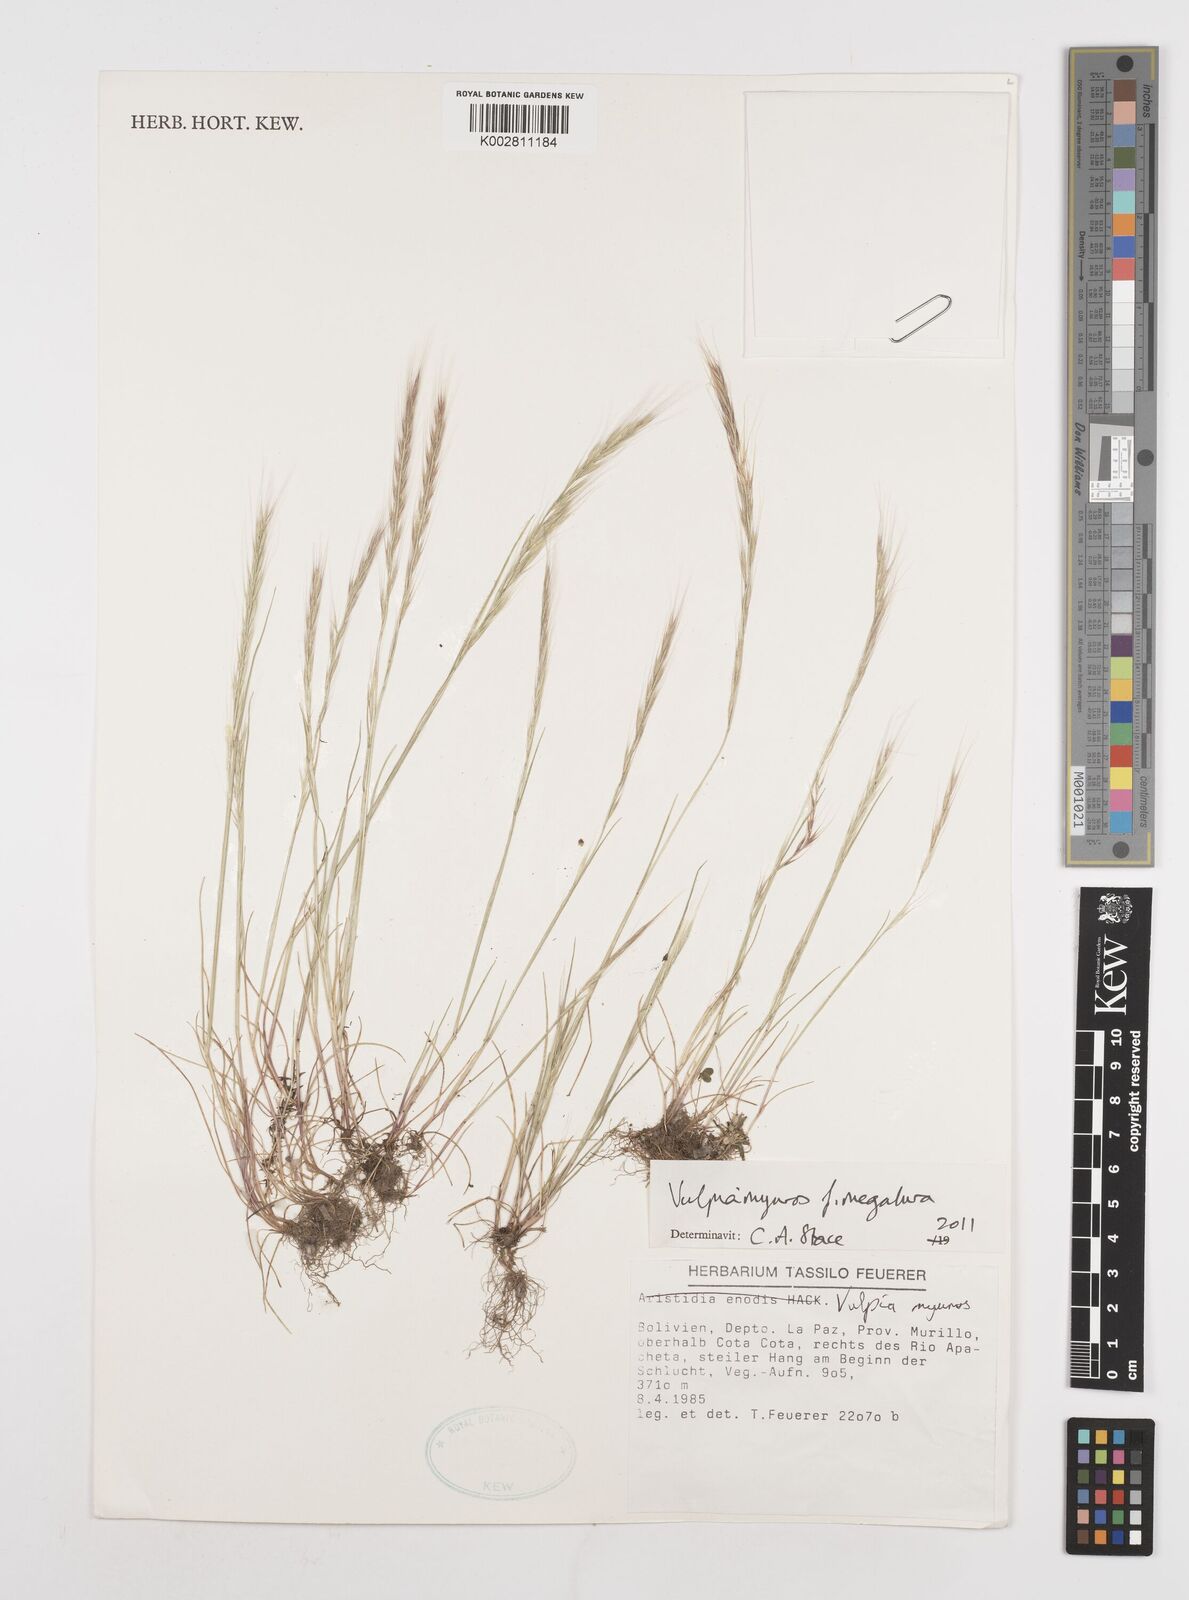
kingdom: Plantae
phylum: Tracheophyta
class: Liliopsida
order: Poales
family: Poaceae
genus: Festuca
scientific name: Festuca myuros
